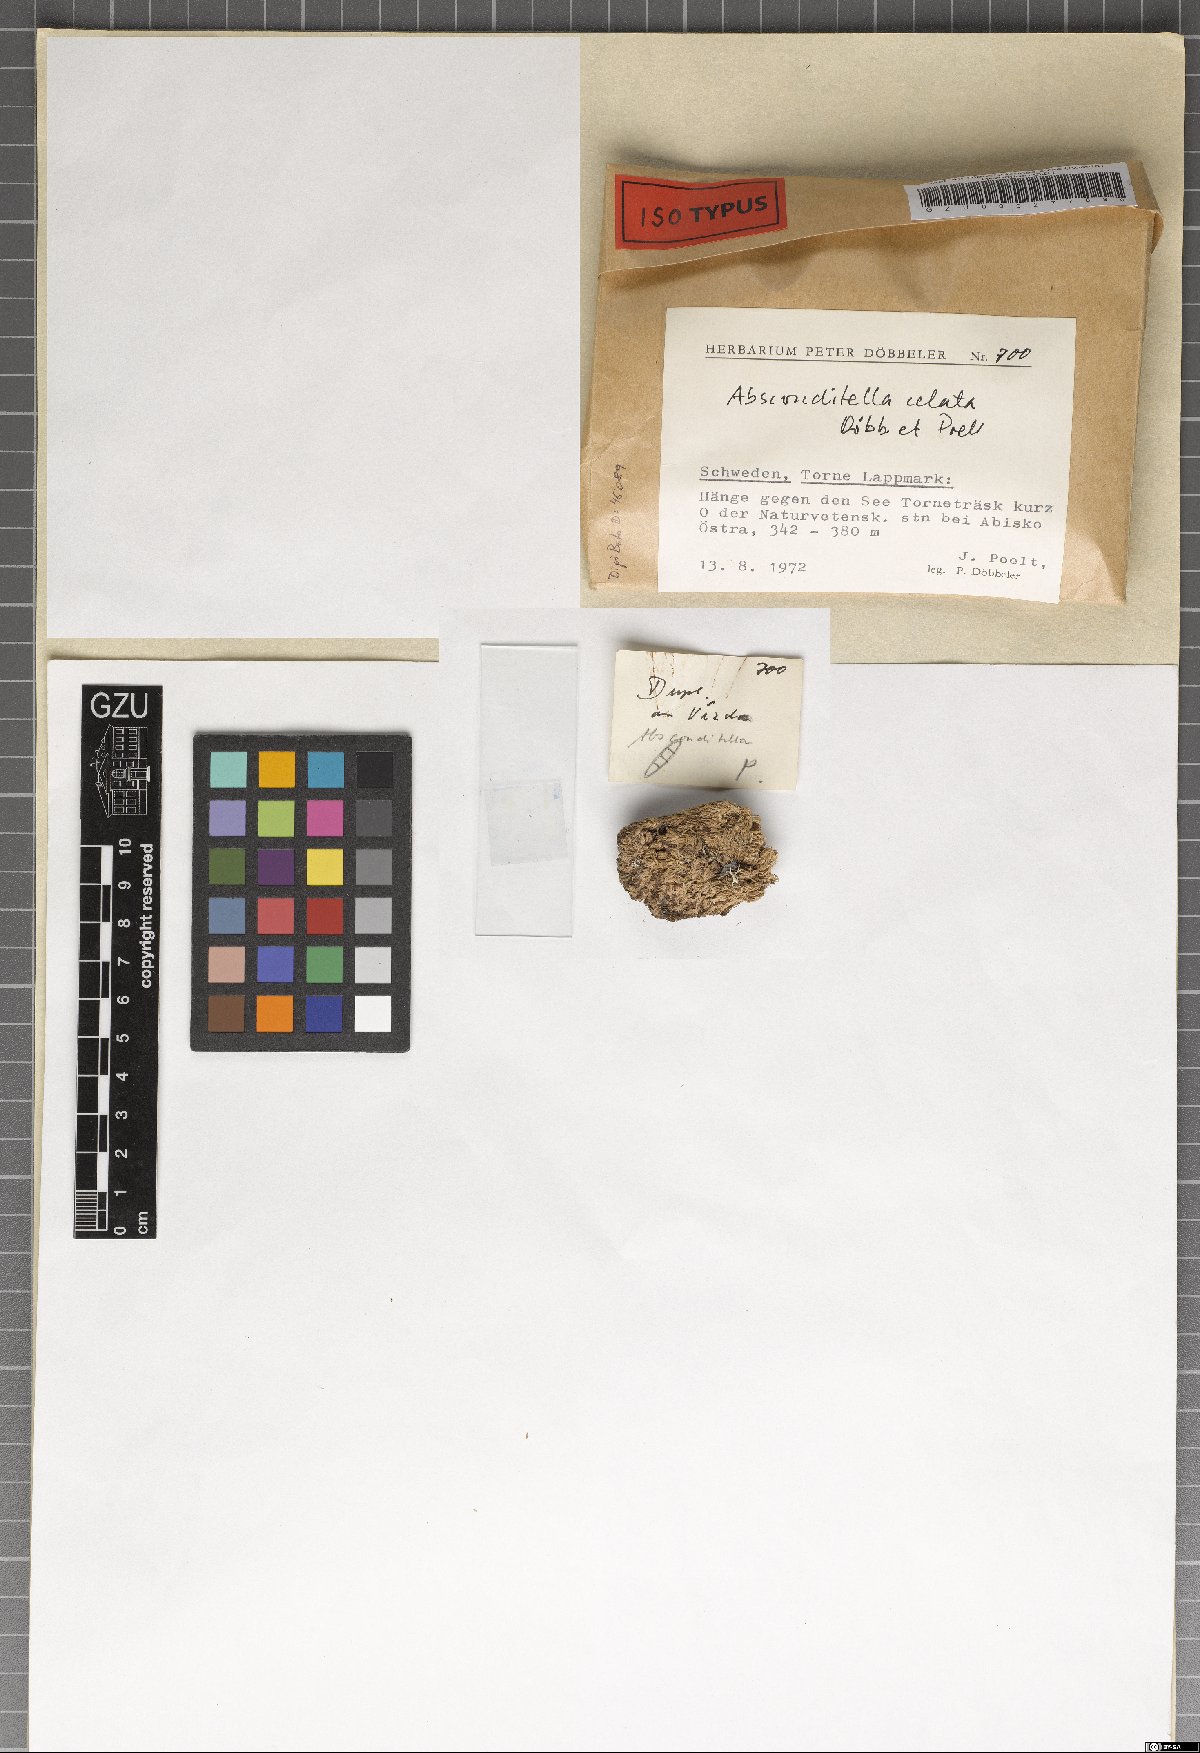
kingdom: Fungi
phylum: Ascomycota
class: Lecanoromycetes
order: Ostropales
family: Stictidaceae
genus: Absconditella
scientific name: Absconditella celata
